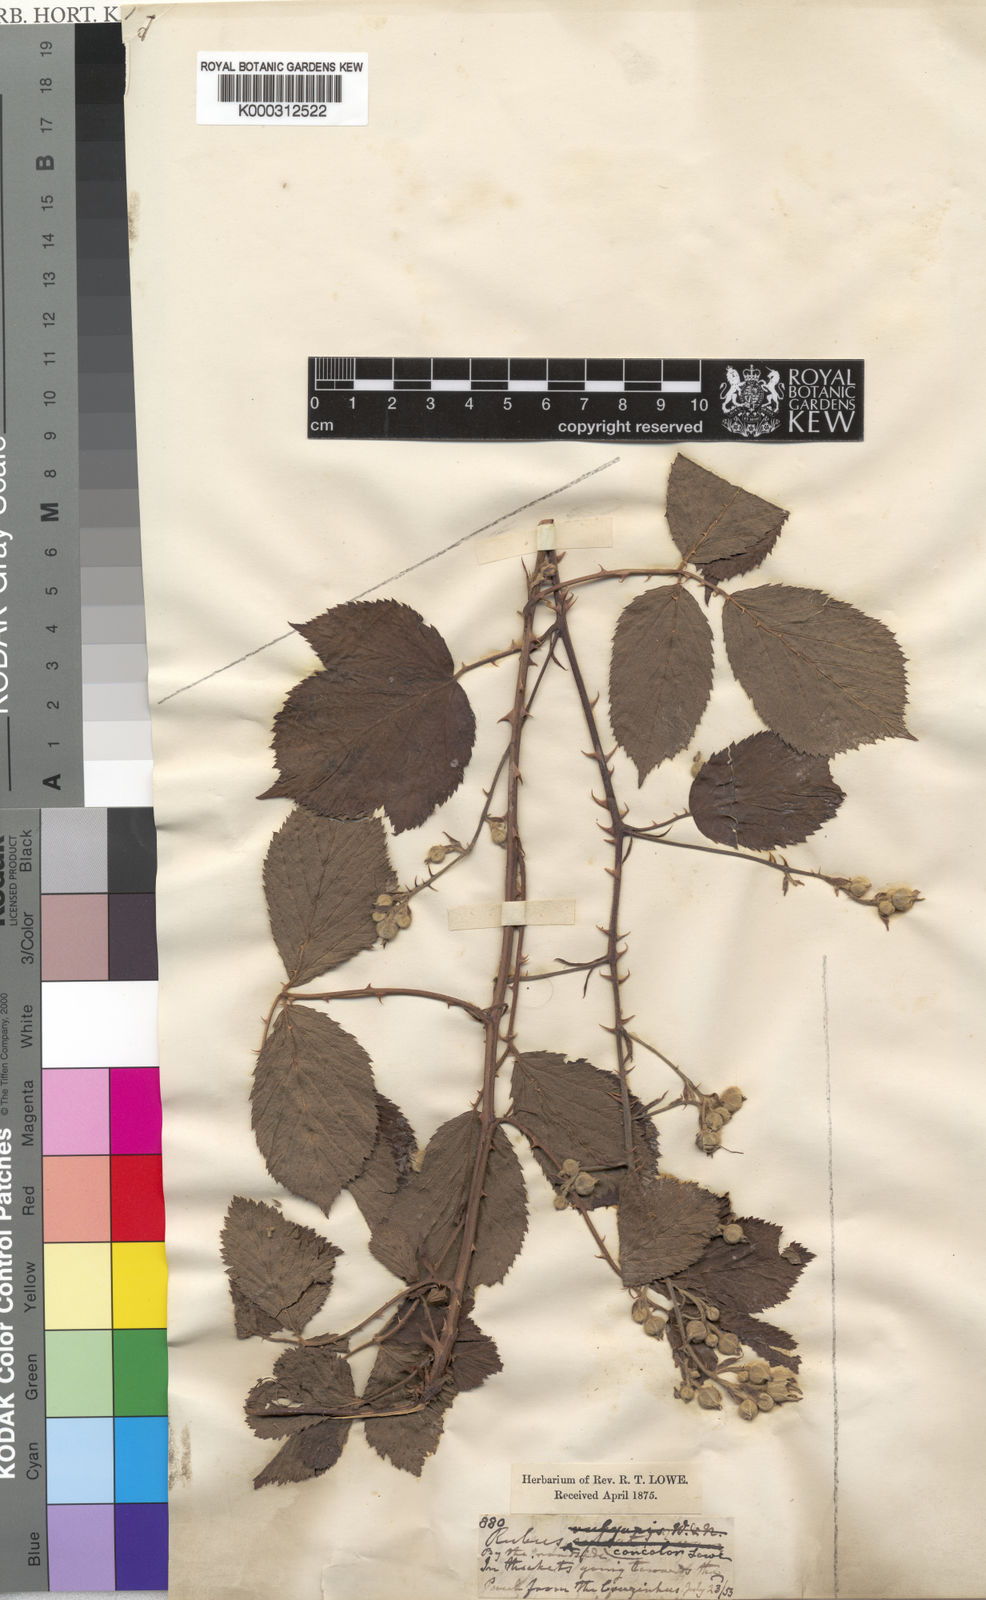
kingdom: Plantae
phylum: Tracheophyta
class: Magnoliopsida
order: Rosales
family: Rosaceae
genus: Rubus
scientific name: Rubus bollei
